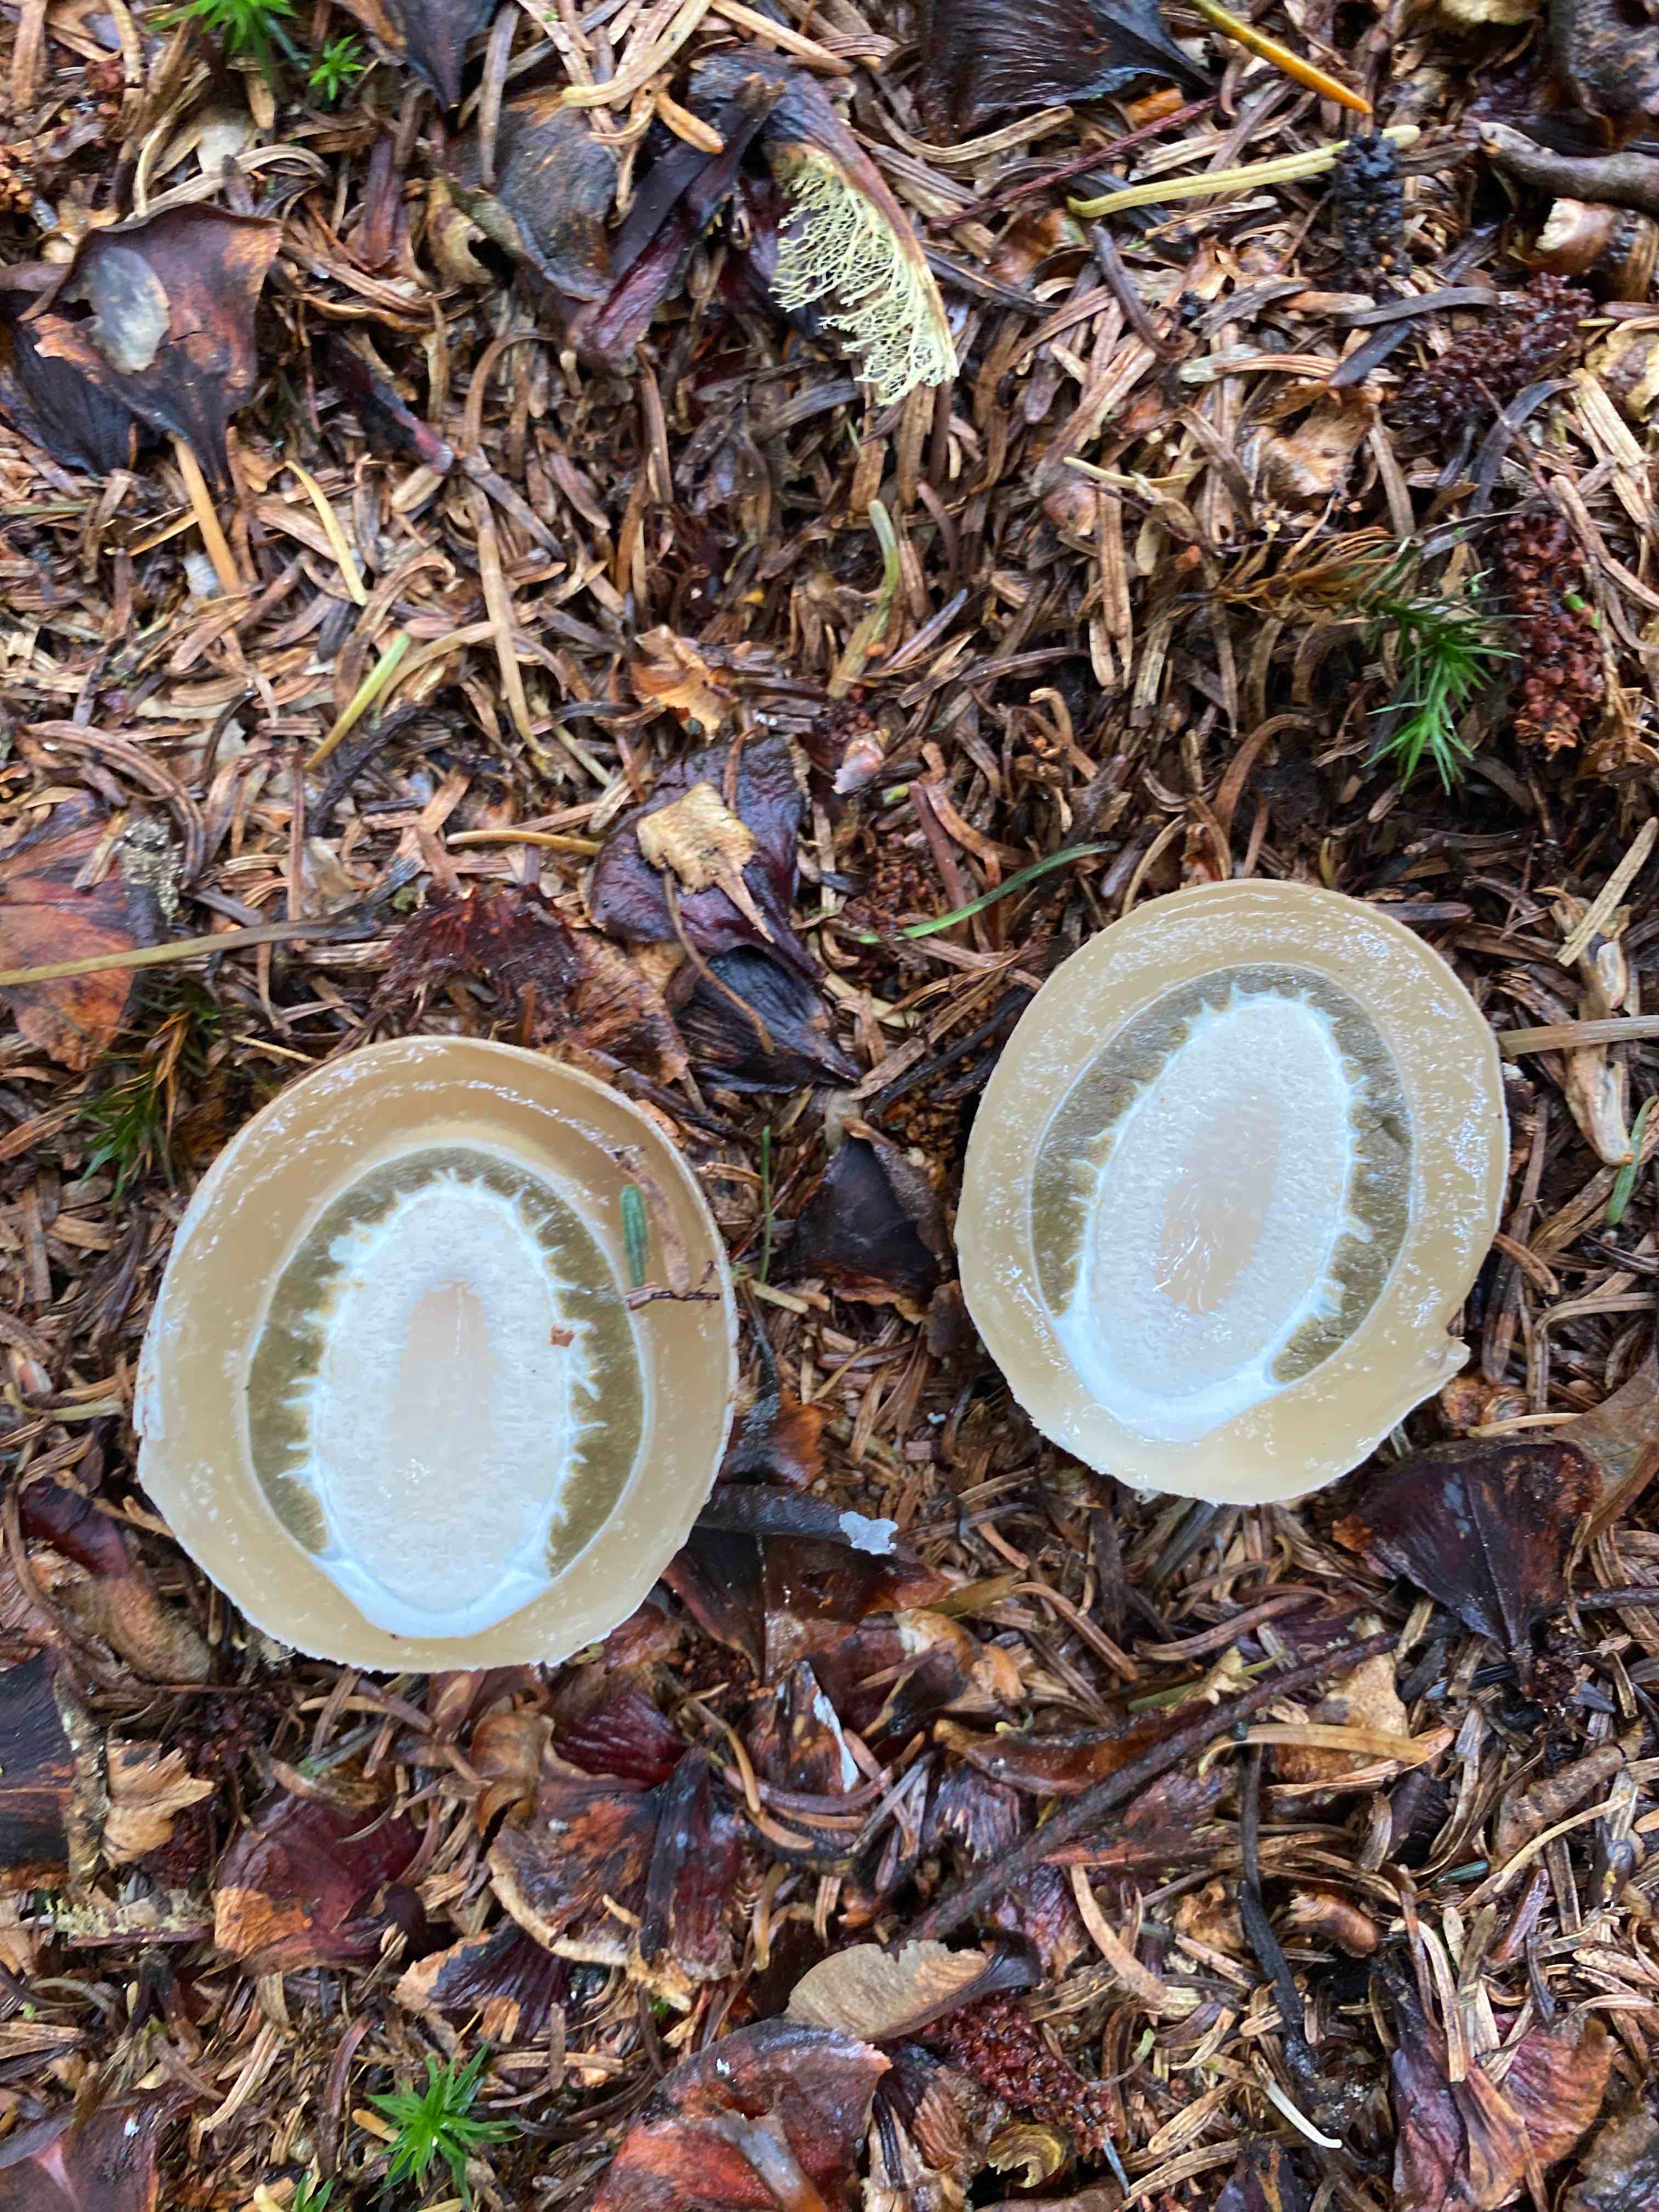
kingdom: Fungi
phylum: Basidiomycota
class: Agaricomycetes
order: Phallales
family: Phallaceae
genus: Phallus
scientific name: Phallus impudicus
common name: almindelig stinksvamp
